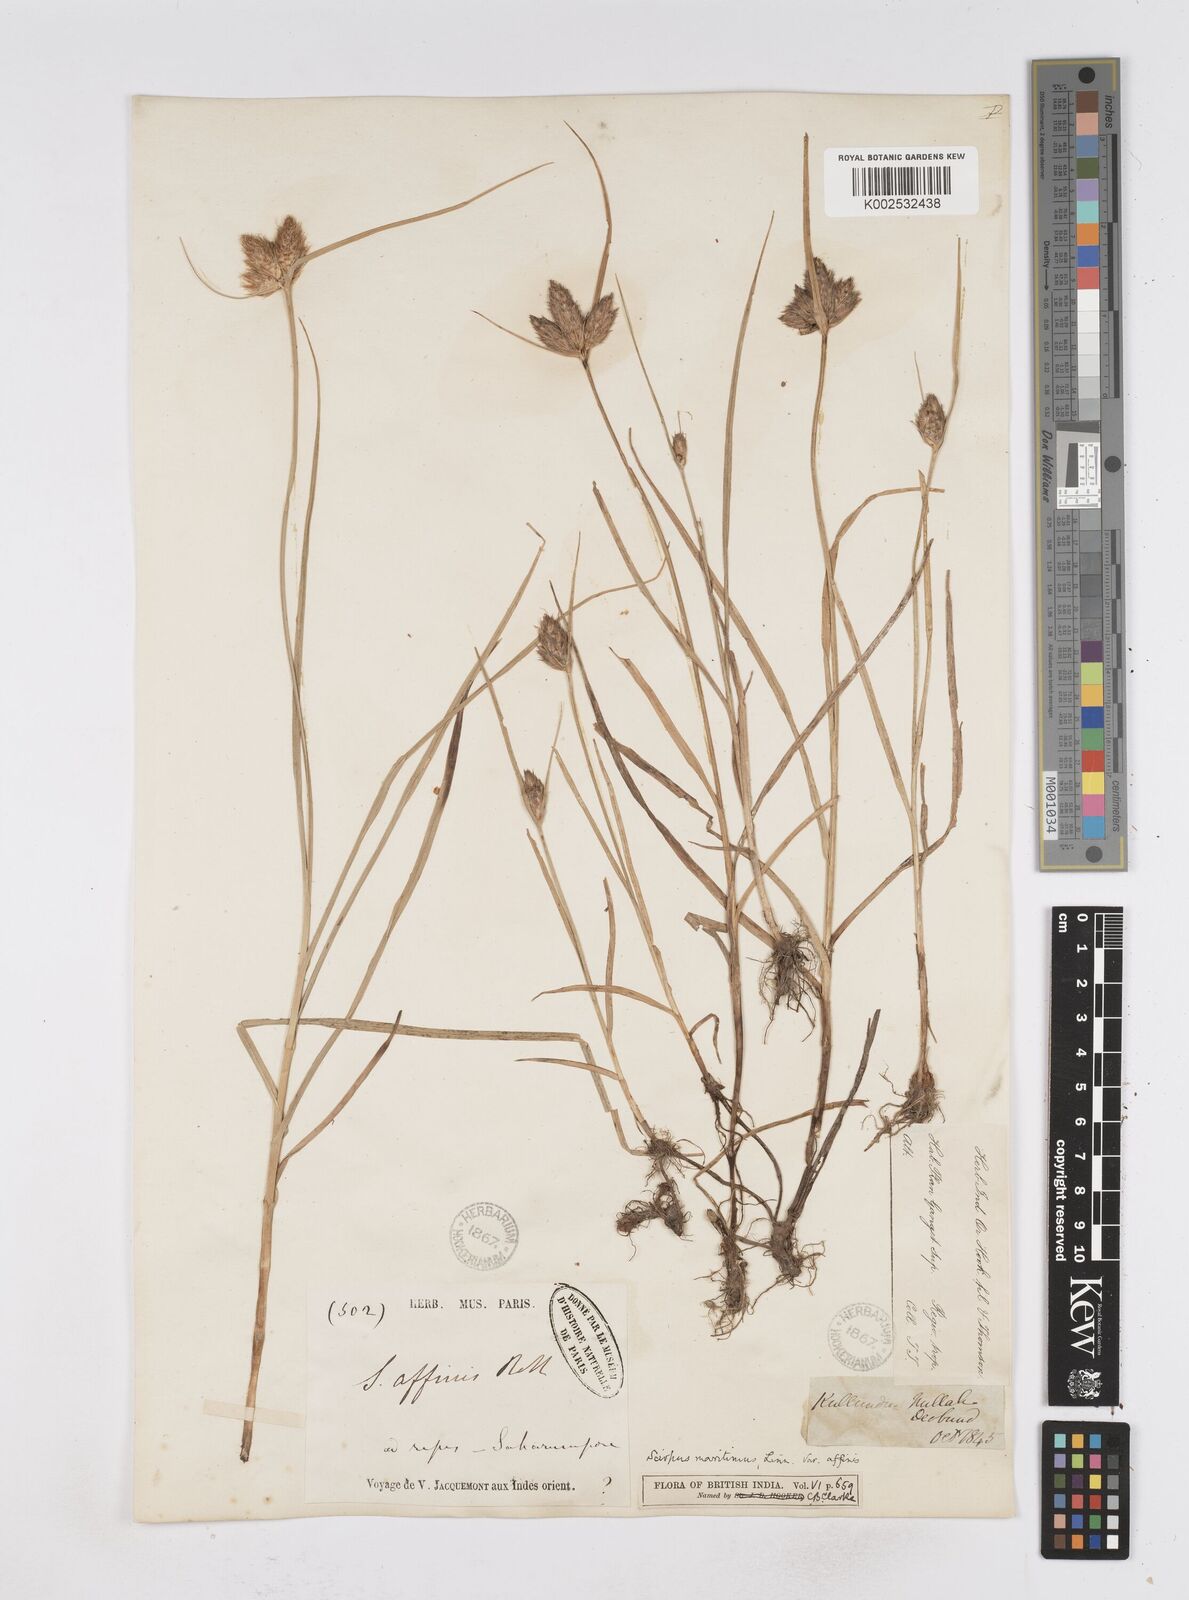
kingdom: Plantae
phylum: Tracheophyta
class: Liliopsida
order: Poales
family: Cyperaceae
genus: Bolboschoenus
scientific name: Bolboschoenus maritimus
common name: Sea club-rush
